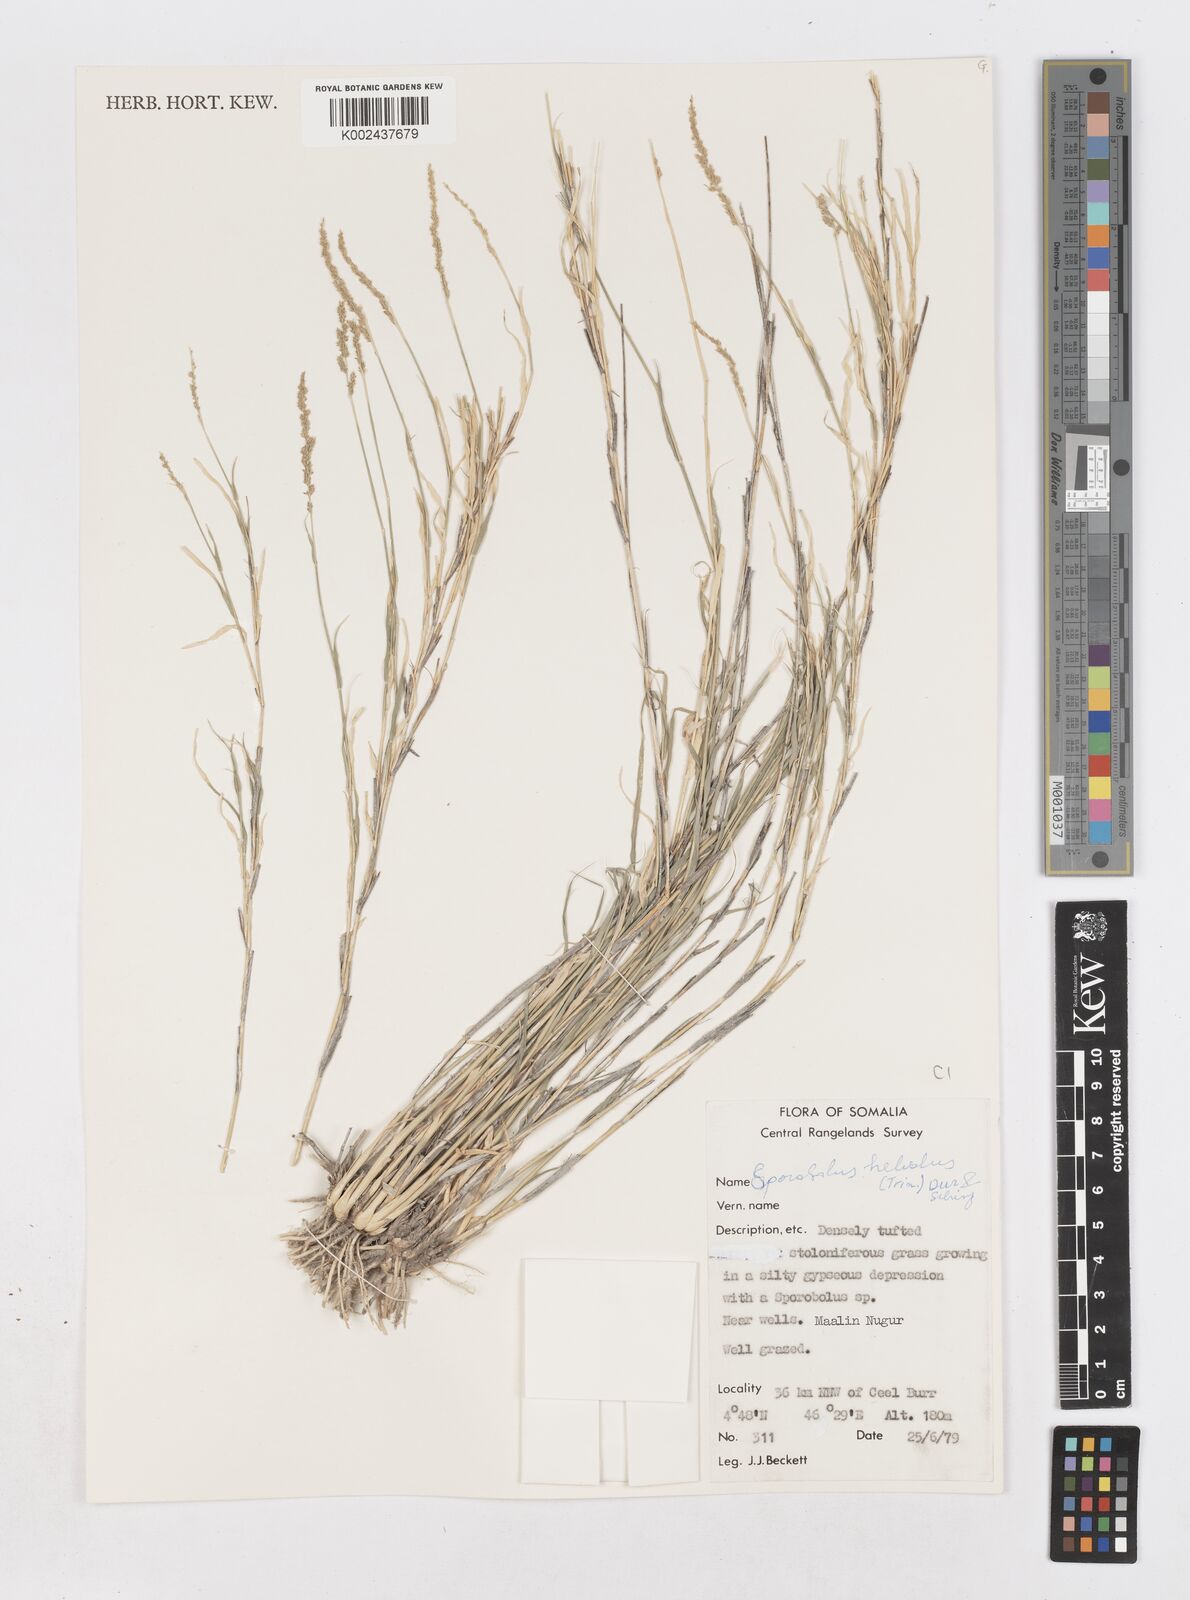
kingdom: Plantae
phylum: Tracheophyta
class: Liliopsida
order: Poales
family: Poaceae
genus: Sporobolus
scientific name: Sporobolus helvolus
